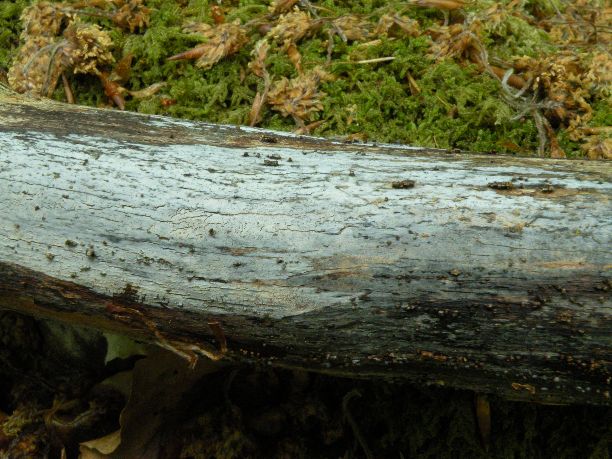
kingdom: Fungi
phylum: Basidiomycota
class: Tremellomycetes
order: Tremellales
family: Exidiaceae
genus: Exidiopsis
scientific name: Exidiopsis effusa
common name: smuk bævrehinde
